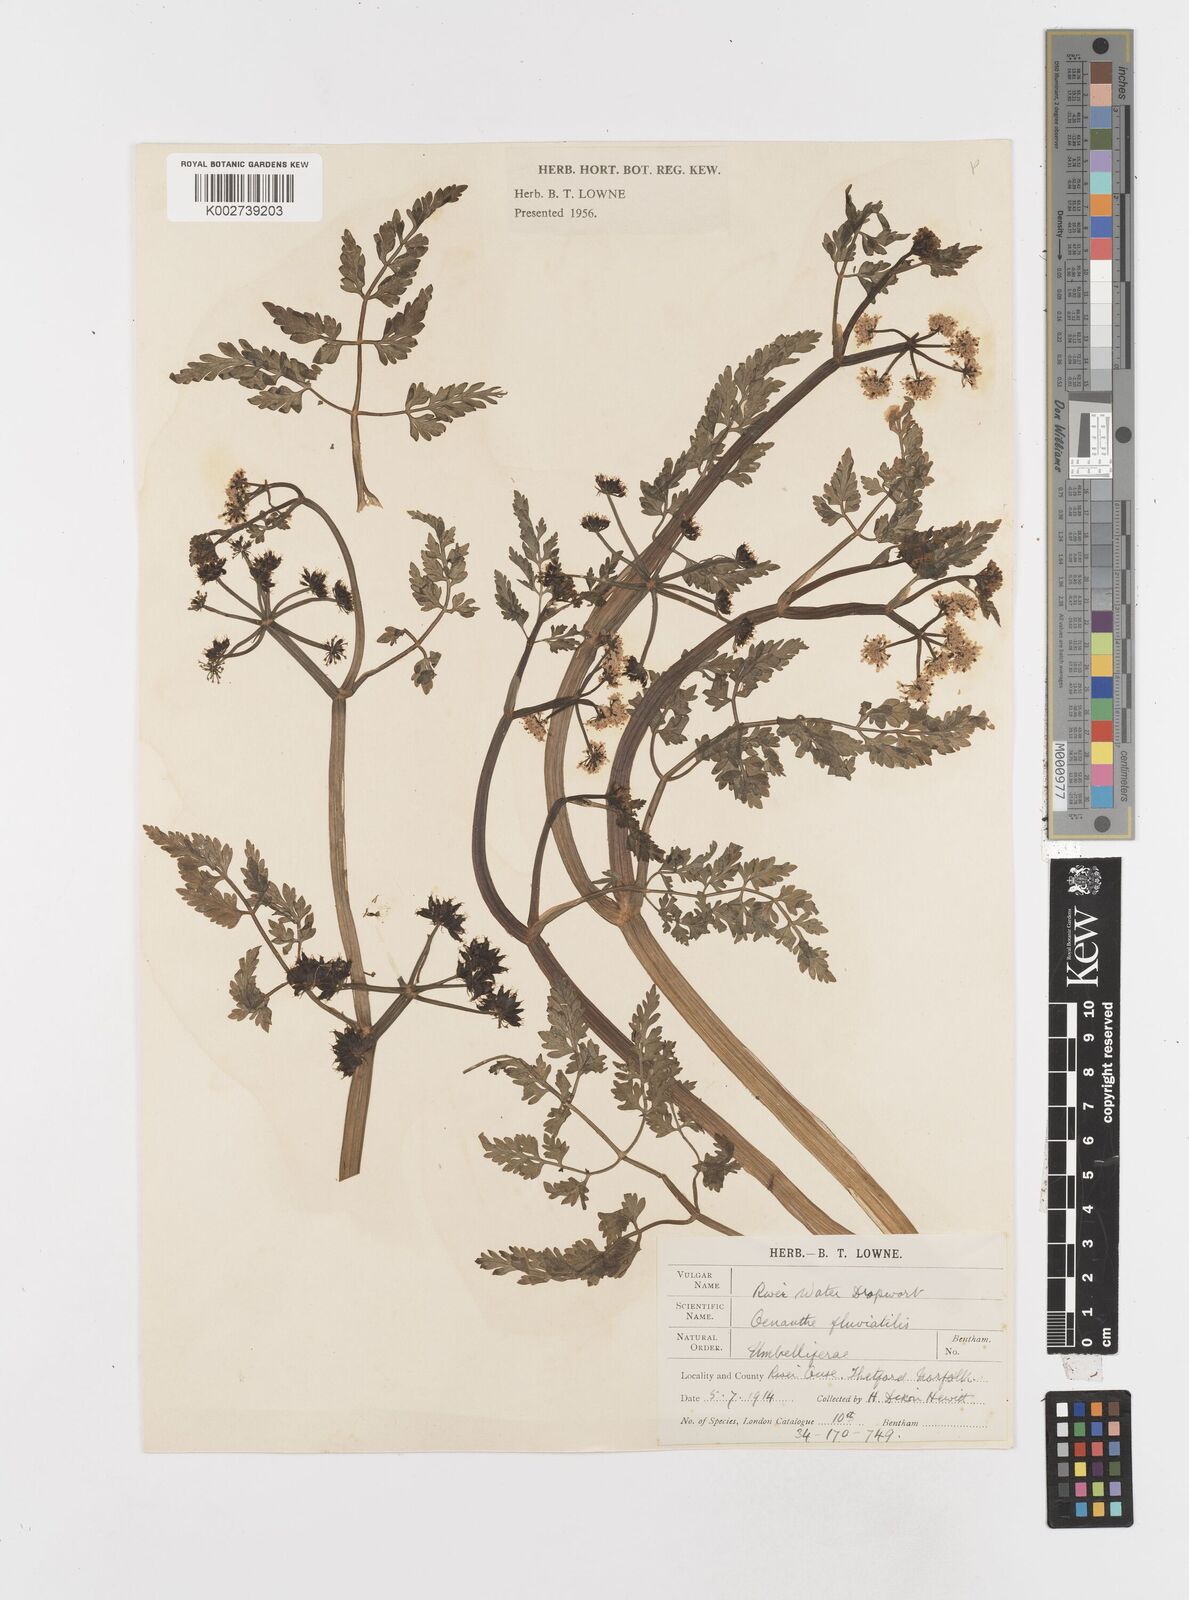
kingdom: Plantae
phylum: Tracheophyta
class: Magnoliopsida
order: Apiales
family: Apiaceae
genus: Oenanthe
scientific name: Oenanthe fluviatilis
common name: River water-dropwort
